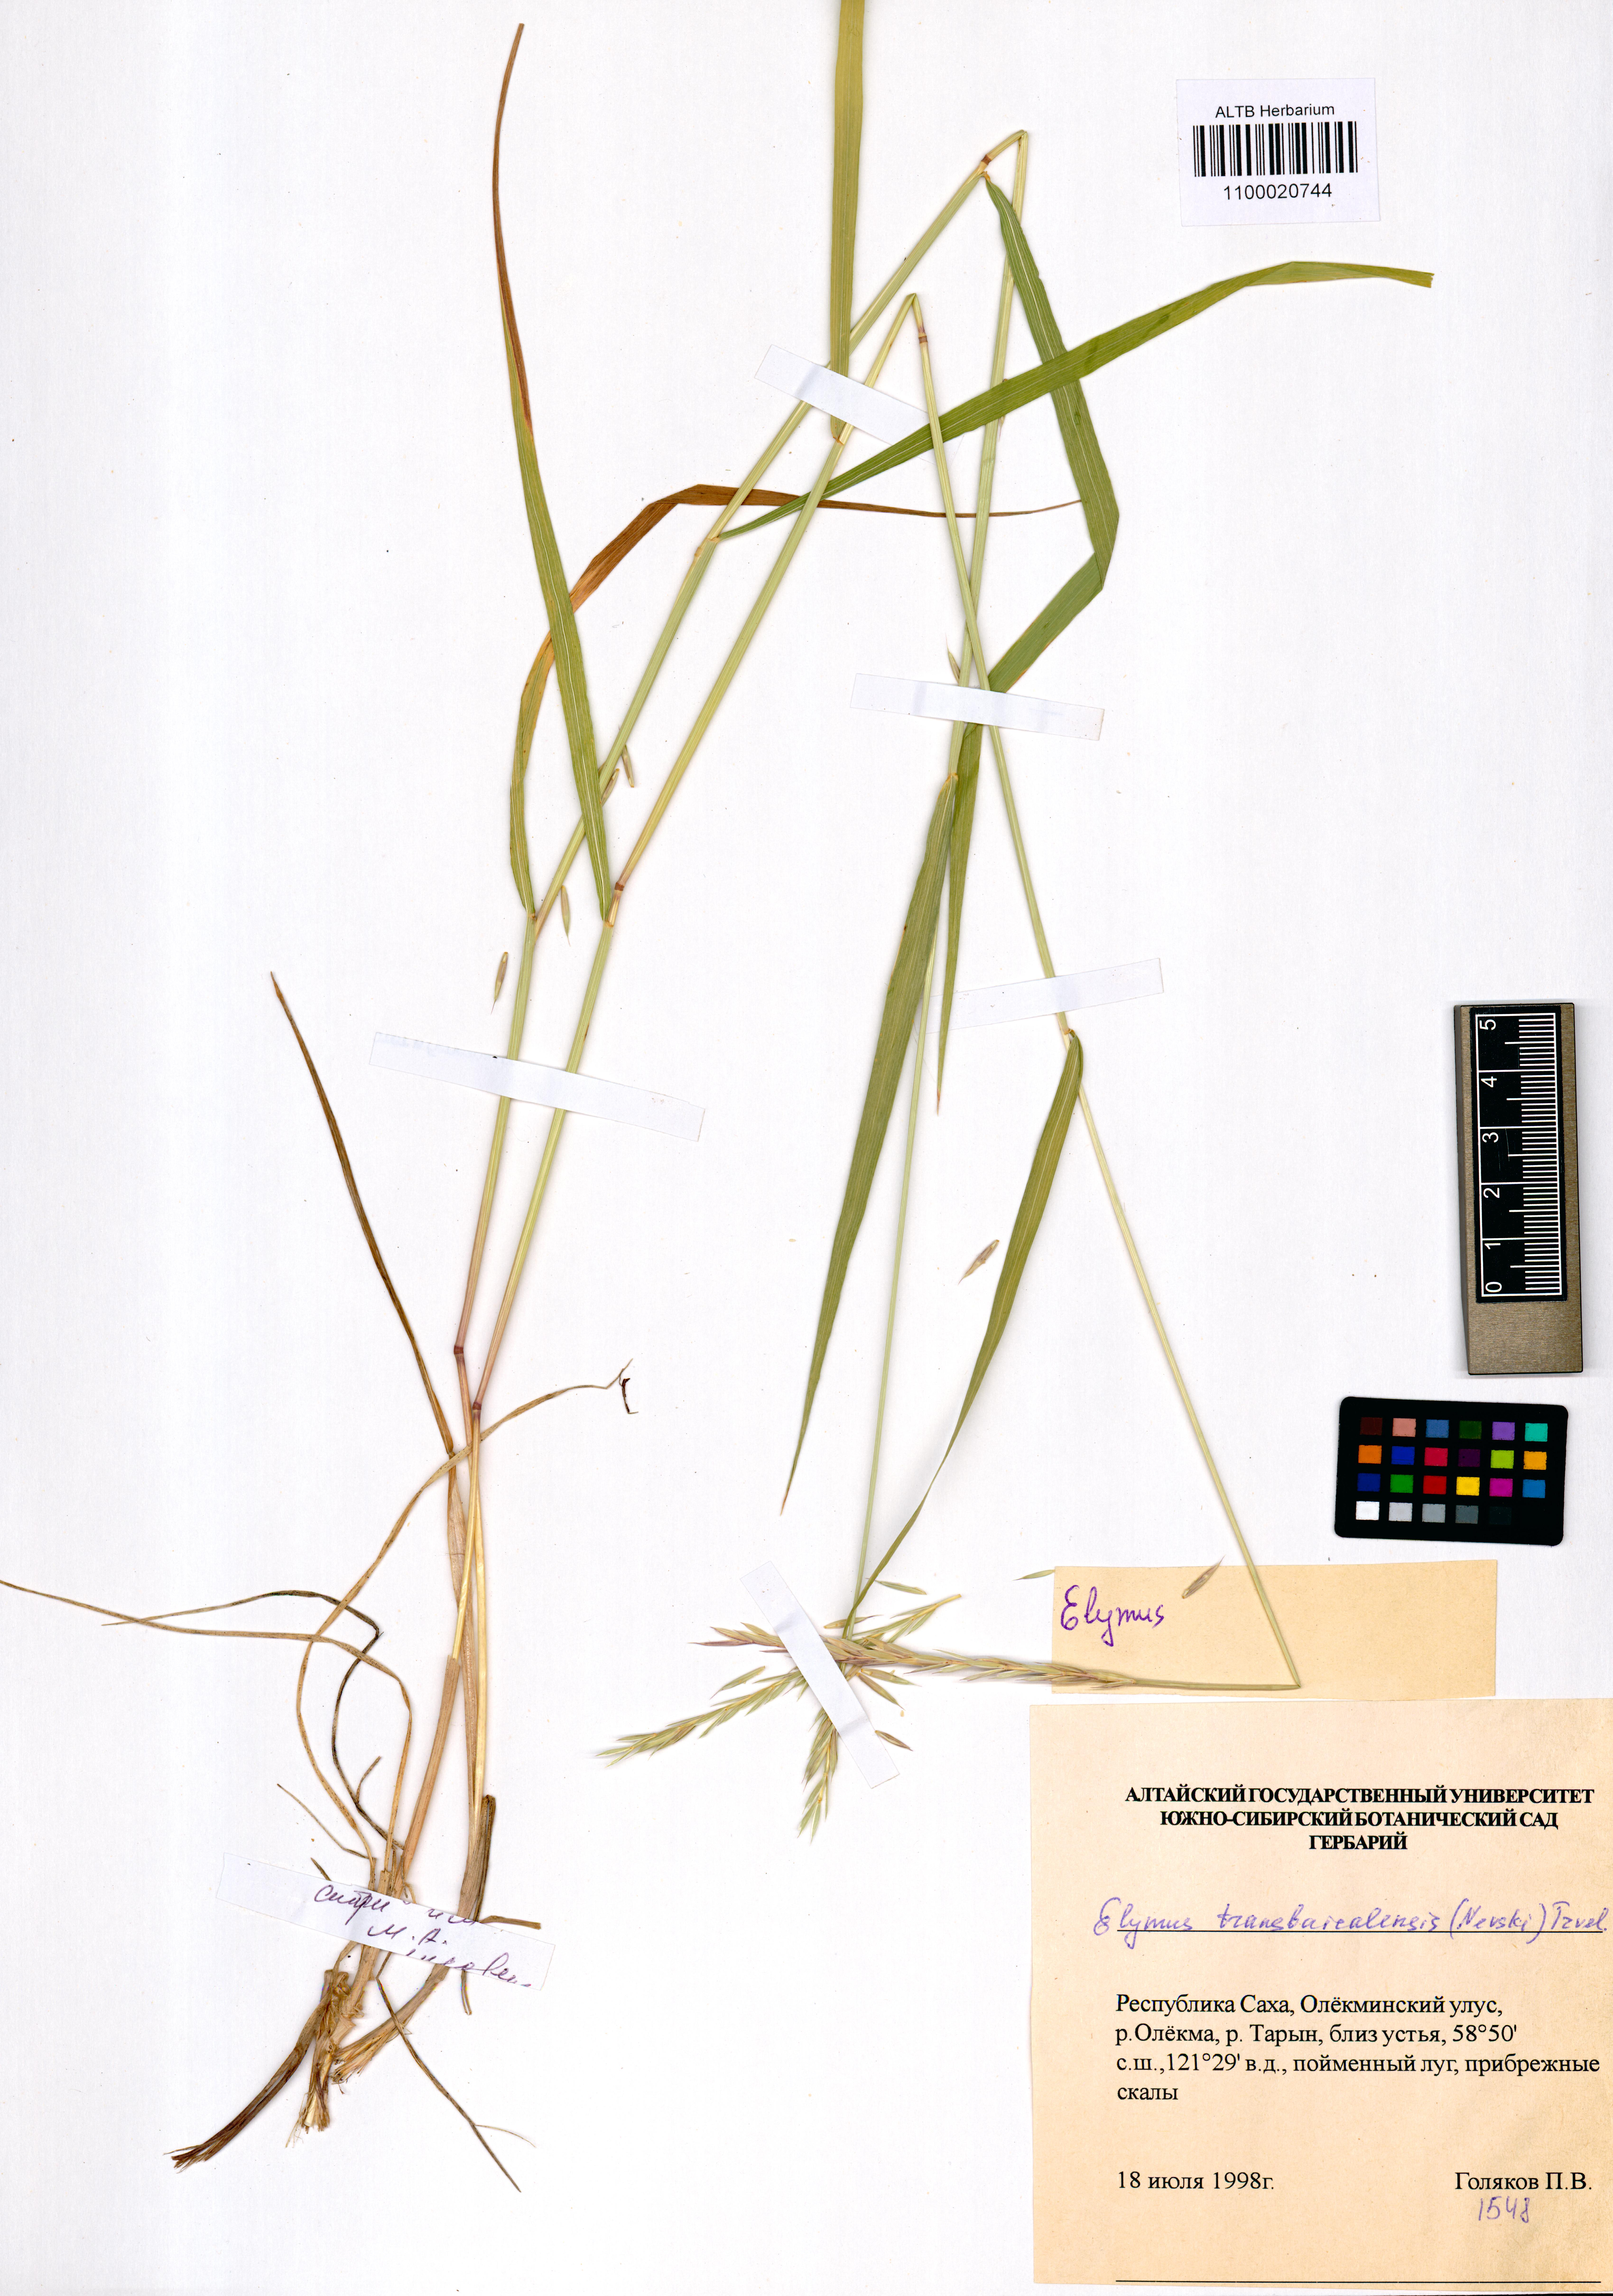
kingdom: Plantae
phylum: Tracheophyta
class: Liliopsida
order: Poales
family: Poaceae
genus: Elymus
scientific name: Elymus mutabilis
